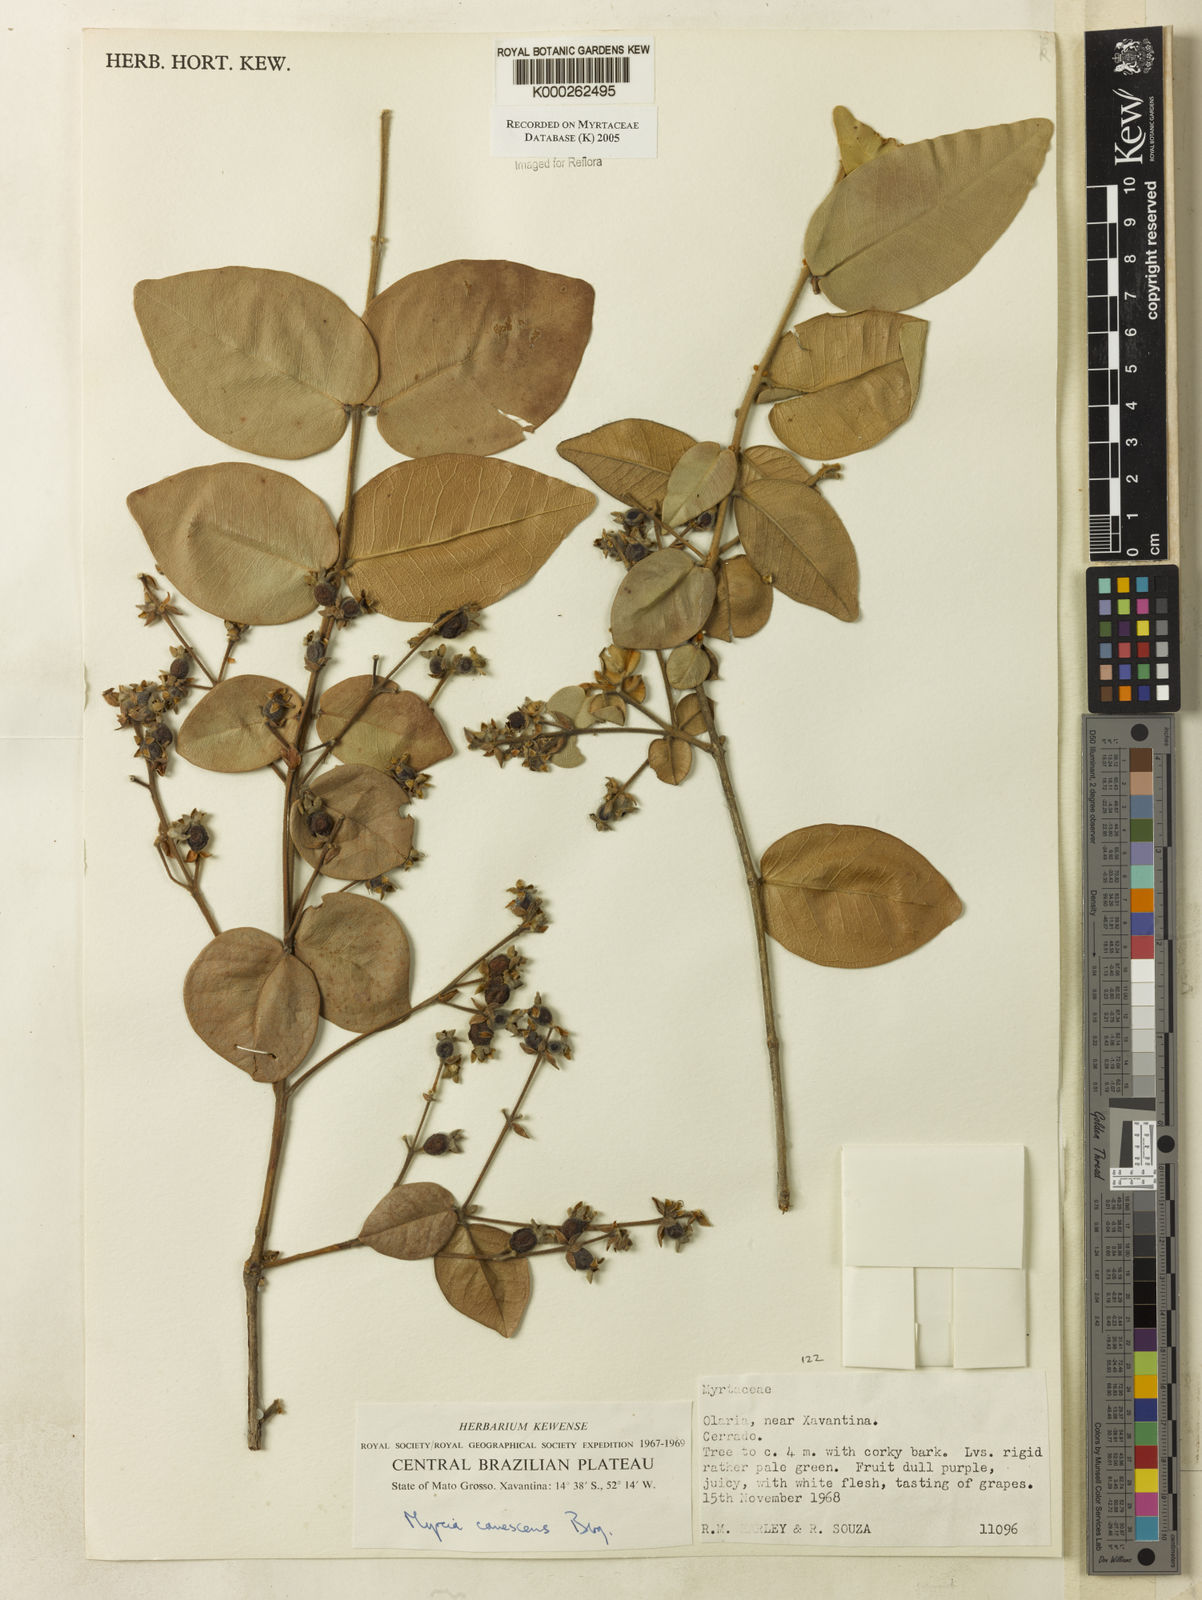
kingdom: Plantae
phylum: Tracheophyta
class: Magnoliopsida
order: Myrtales
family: Myrtaceae
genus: Myrcia
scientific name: Myrcia canescens
